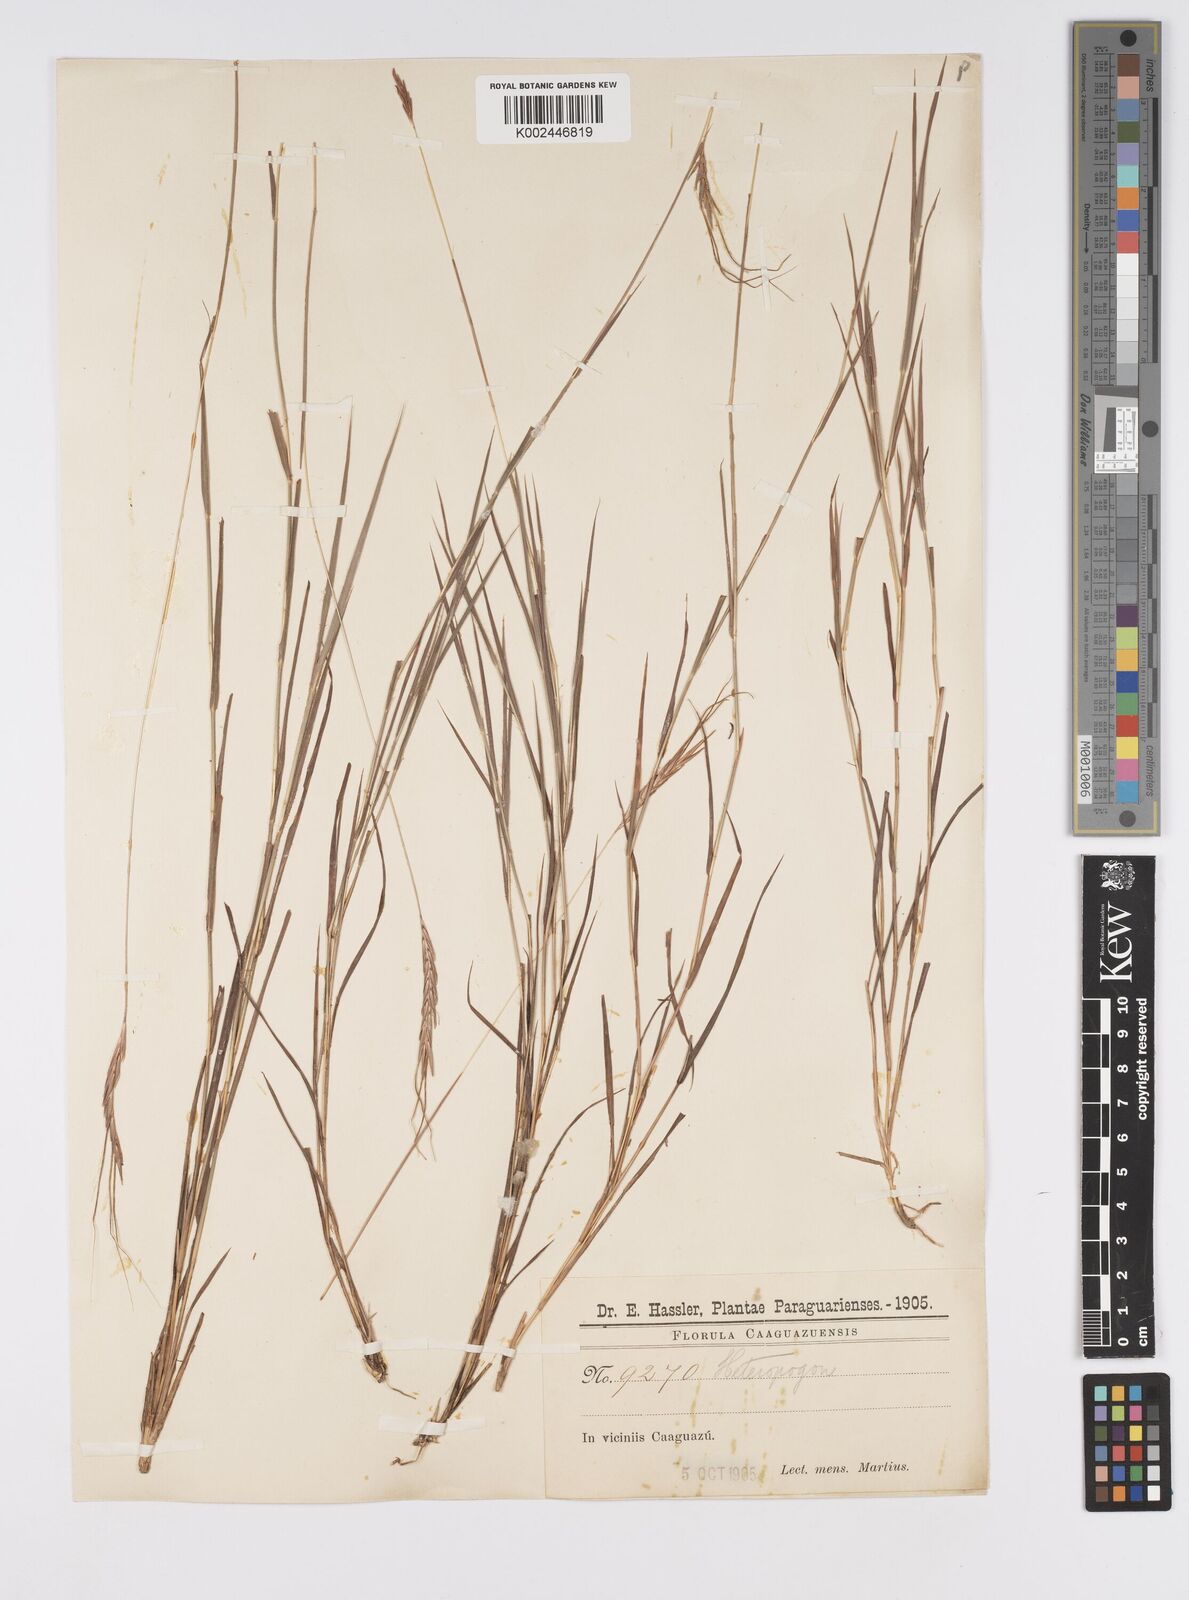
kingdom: Plantae
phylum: Tracheophyta
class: Liliopsida
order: Poales
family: Poaceae
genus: Agenium
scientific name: Agenium leptocladum
